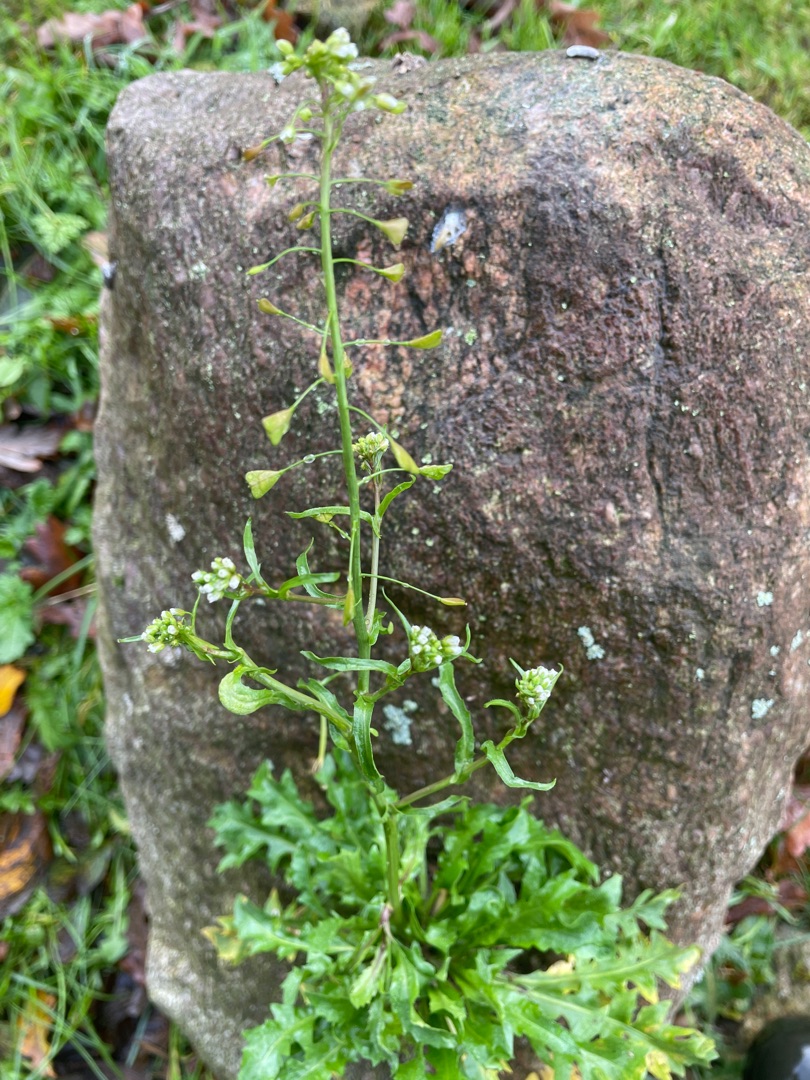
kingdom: Plantae
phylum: Tracheophyta
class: Magnoliopsida
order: Brassicales
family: Brassicaceae
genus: Capsella
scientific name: Capsella bursa-pastoris
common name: Hyrdetaske
